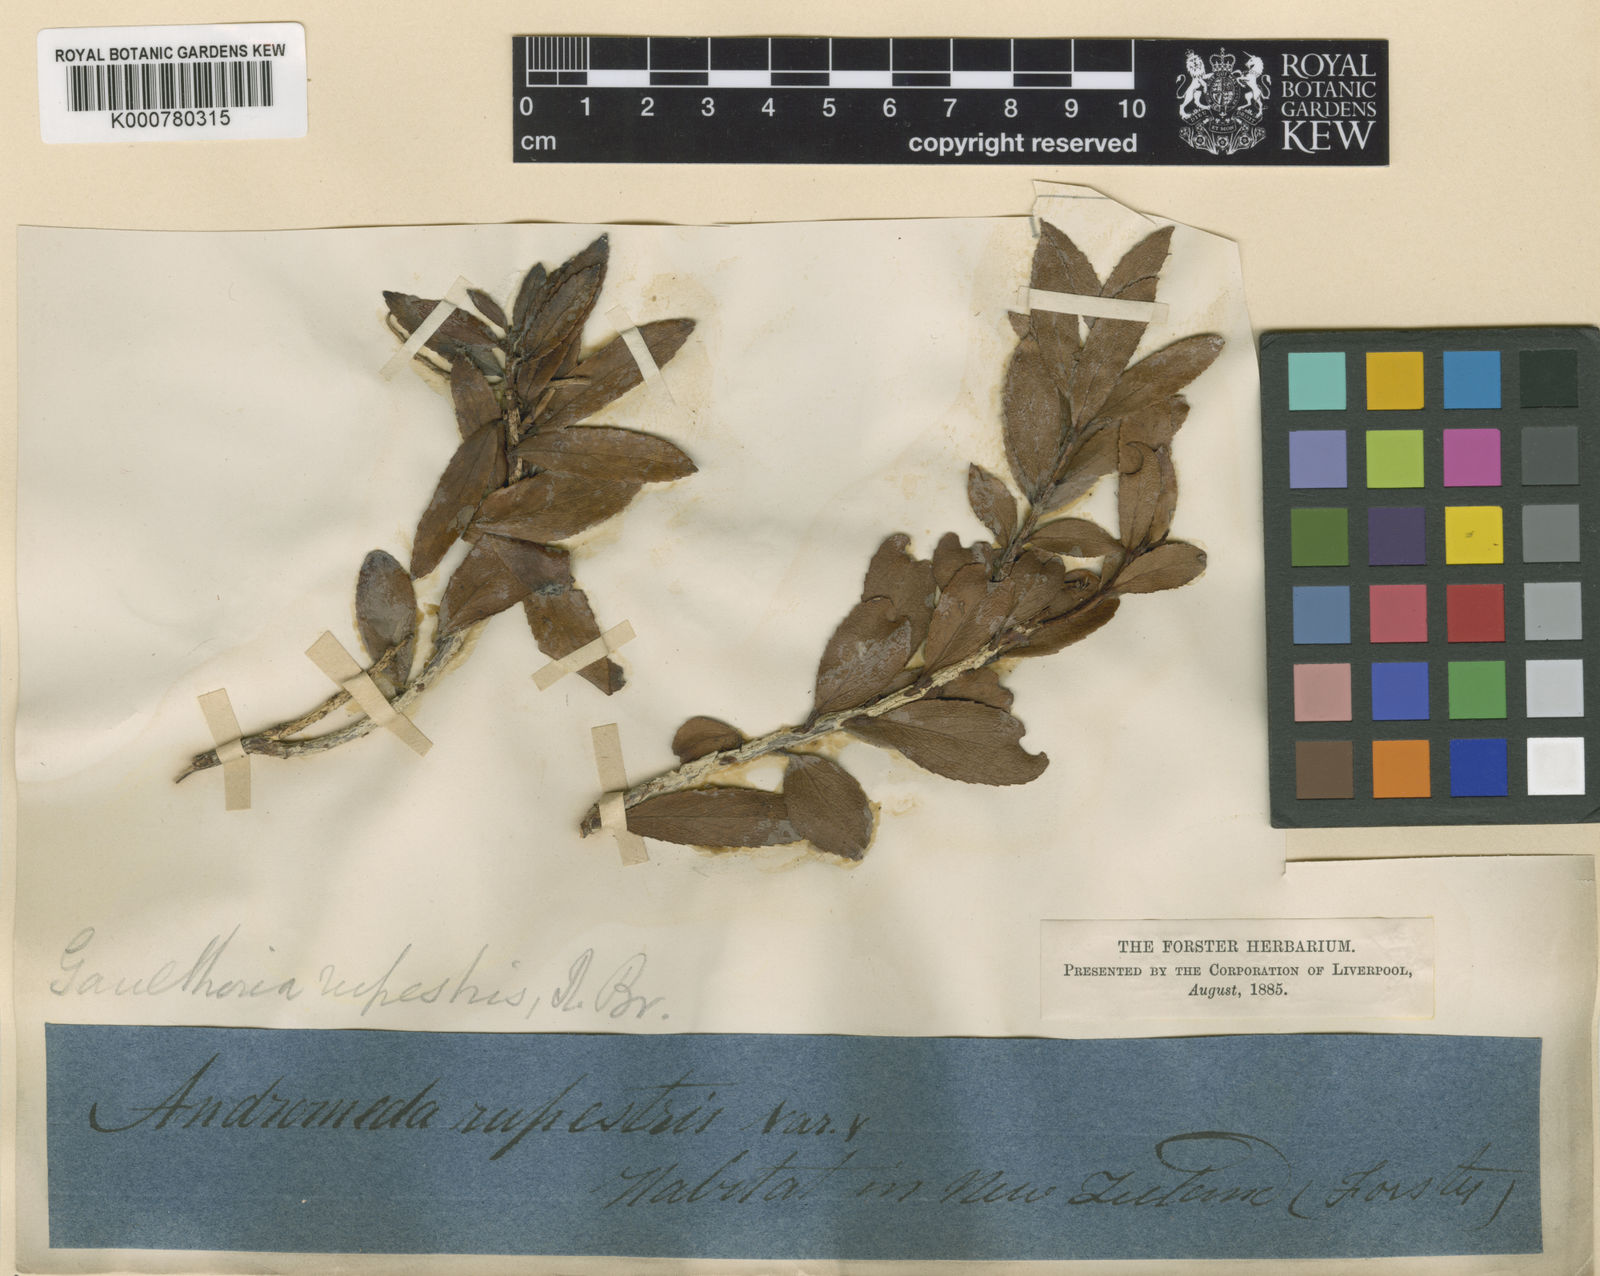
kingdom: Plantae
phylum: Tracheophyta
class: Magnoliopsida
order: Ericales
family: Ericaceae
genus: Gaultheria
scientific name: Gaultheria
